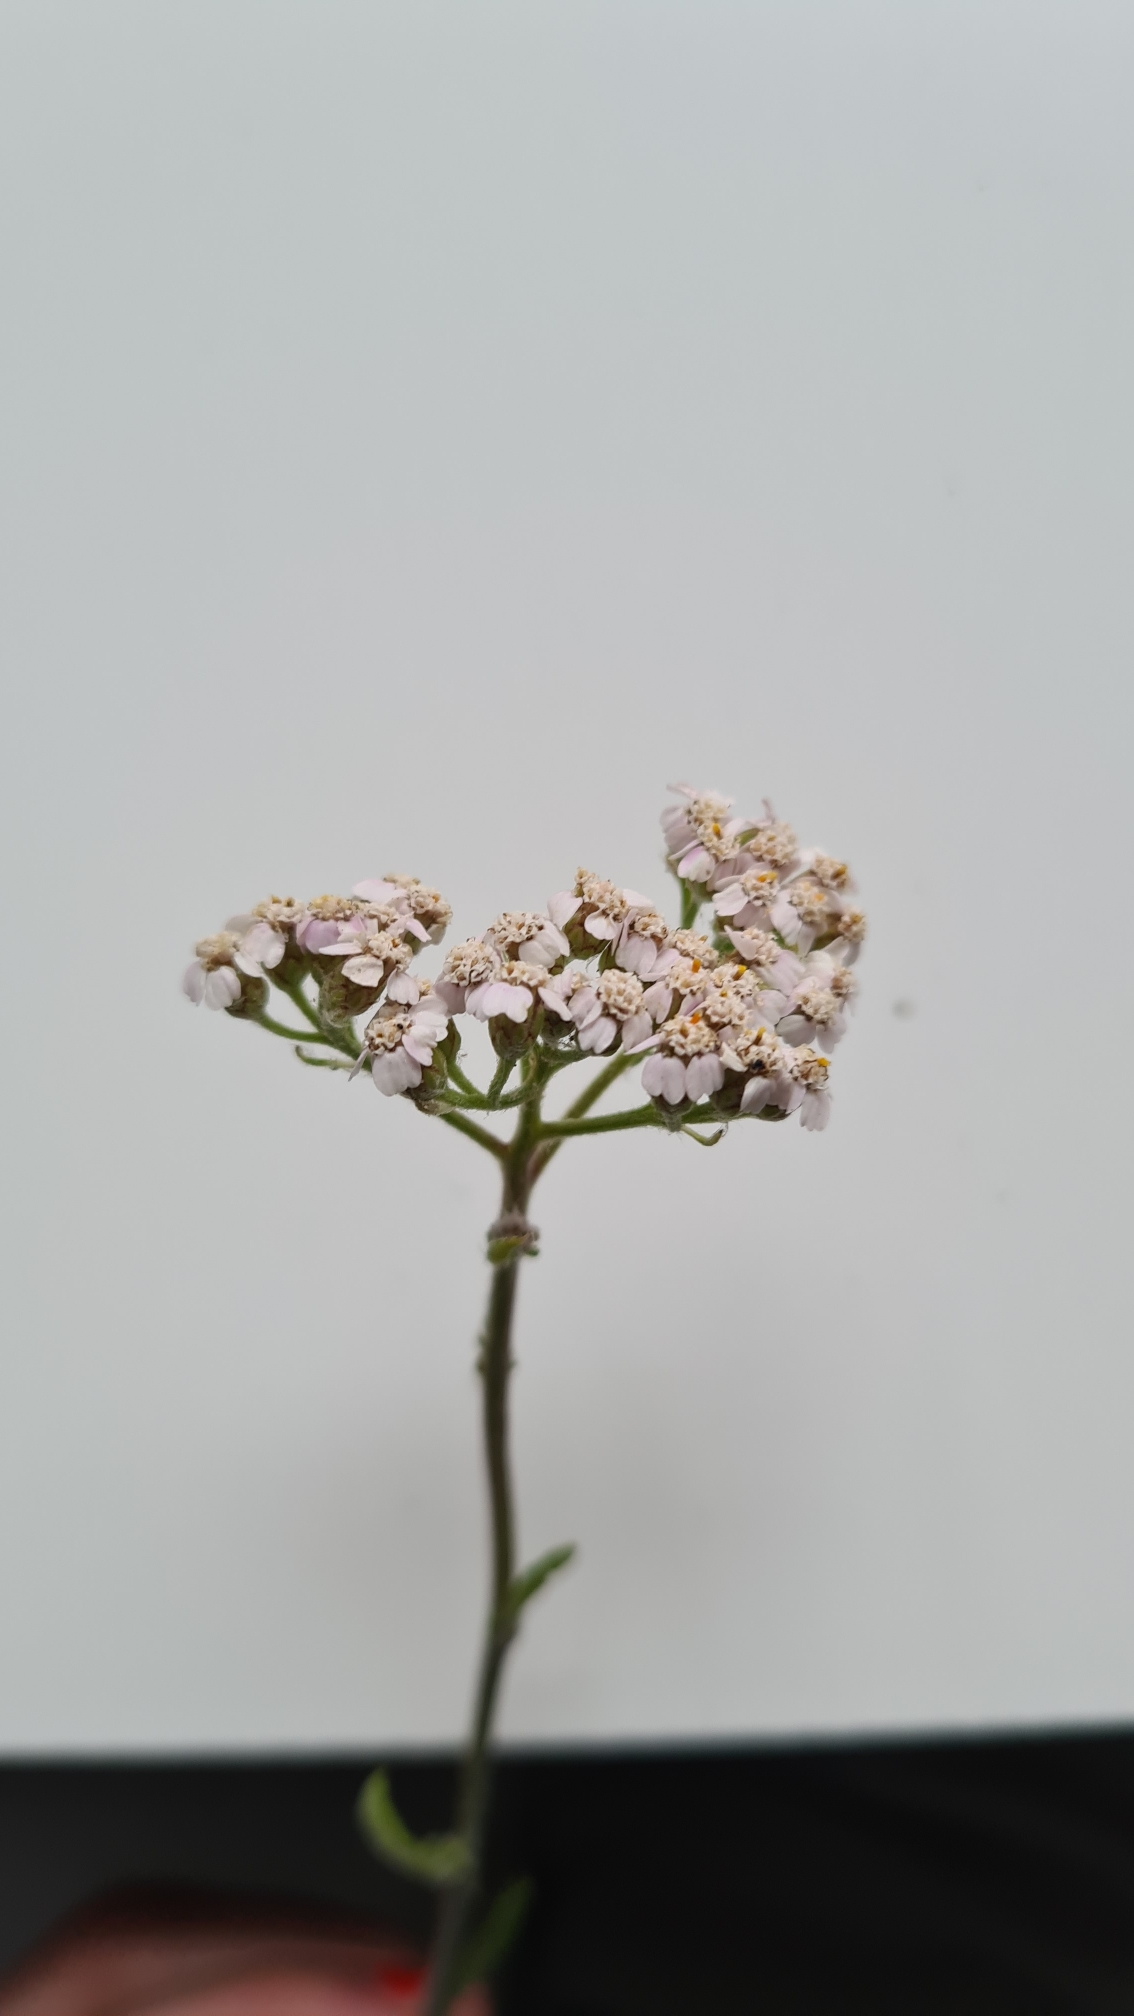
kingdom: Plantae
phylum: Tracheophyta
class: Magnoliopsida
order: Asterales
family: Asteraceae
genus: Achillea
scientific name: Achillea millefolium
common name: Almindelig røllike
